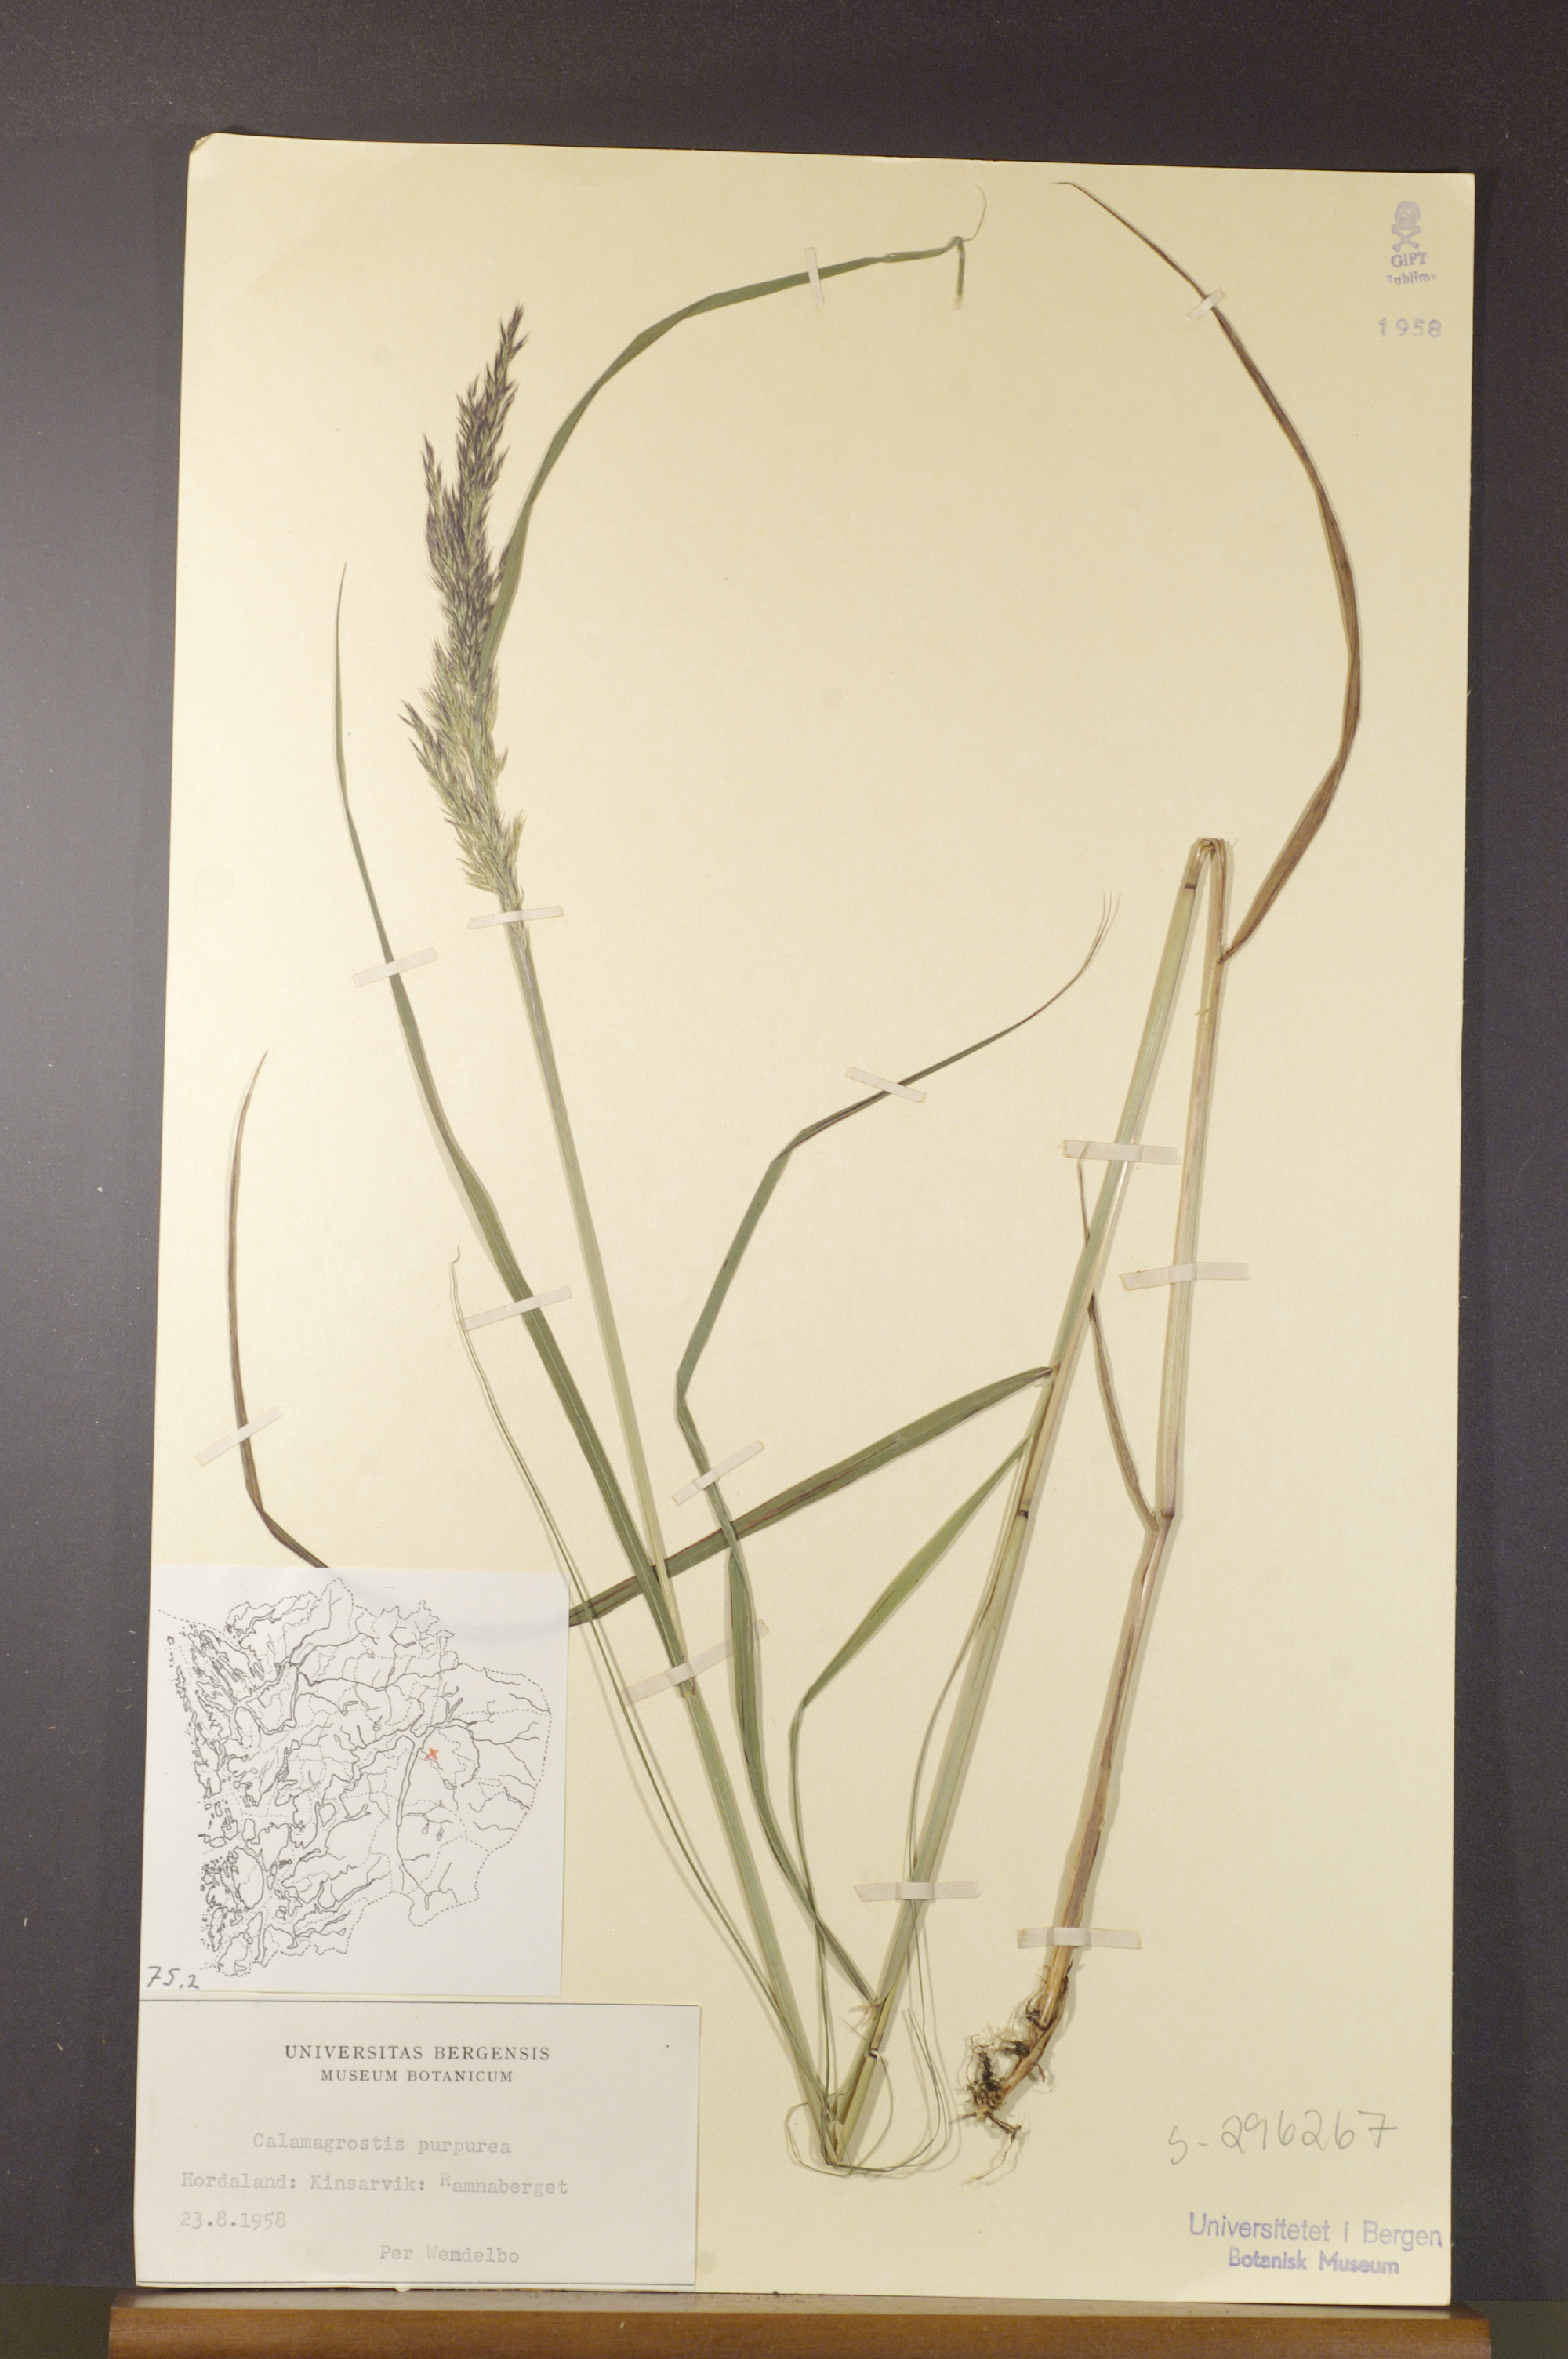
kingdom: Plantae
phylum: Tracheophyta
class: Liliopsida
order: Poales
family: Poaceae
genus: Calamagrostis
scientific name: Calamagrostis purpurea
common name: Scandinavian small-reed
